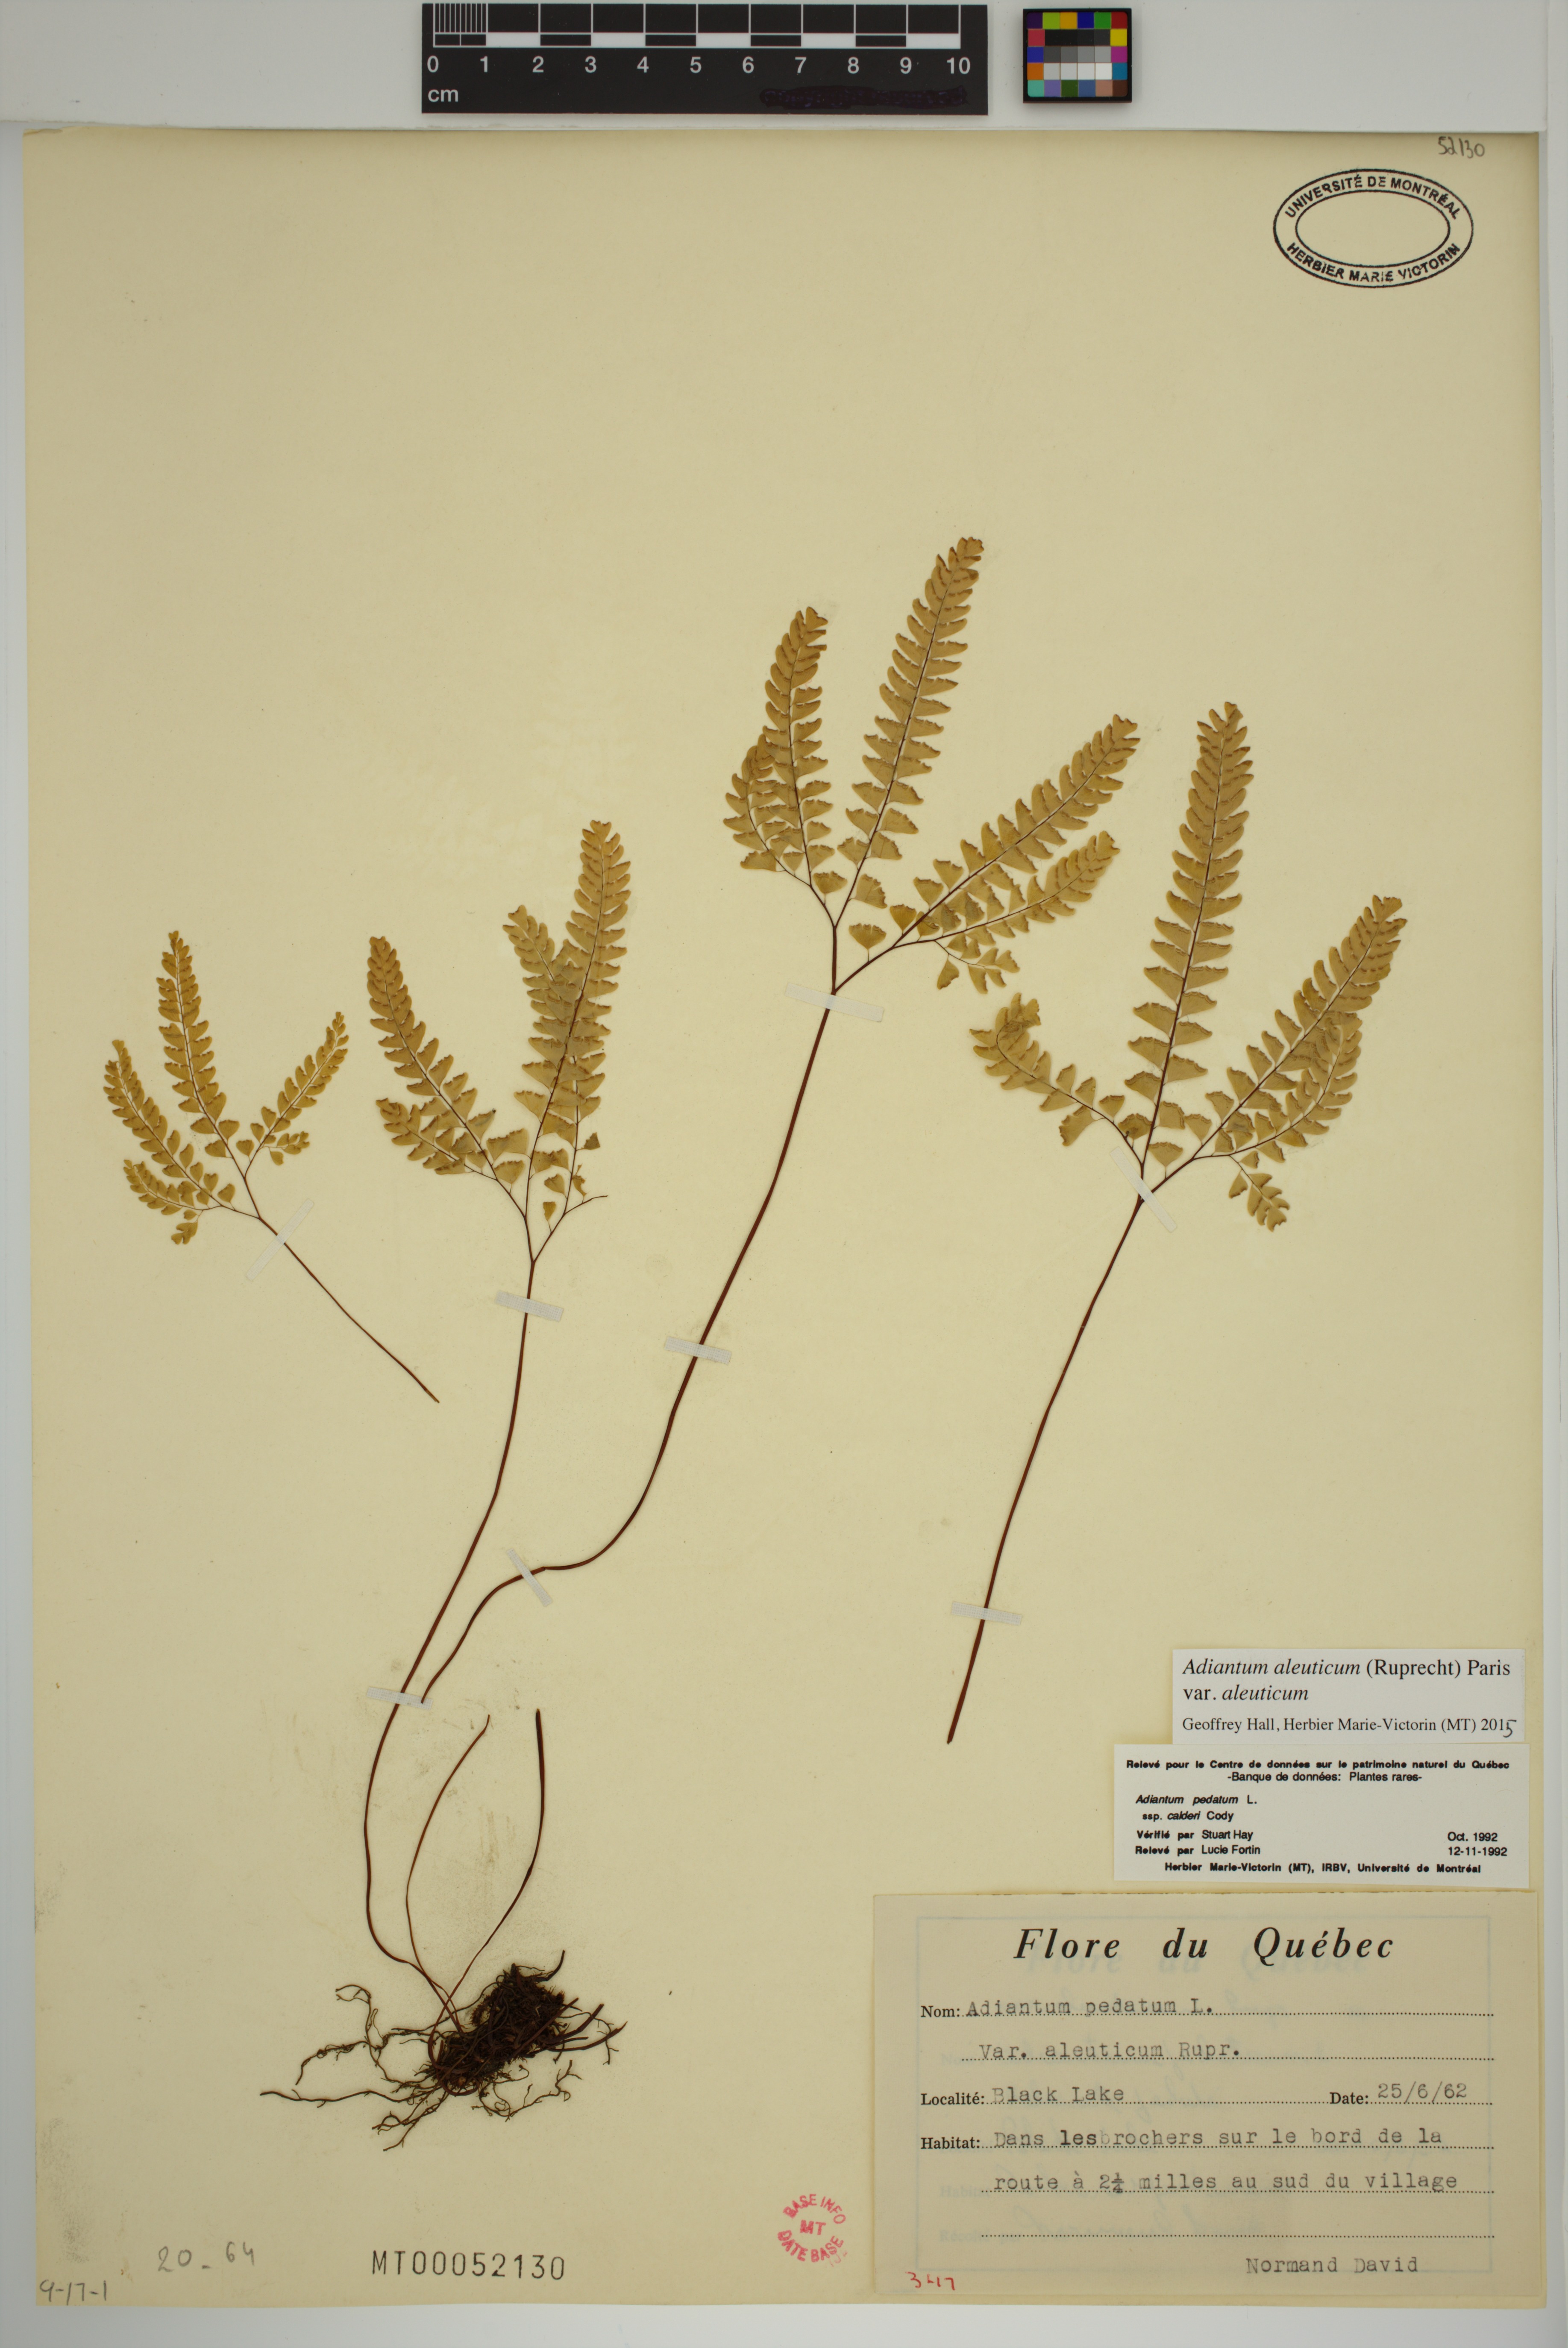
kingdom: Plantae
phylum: Tracheophyta
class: Polypodiopsida
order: Polypodiales
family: Pteridaceae
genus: Adiantum
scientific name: Adiantum aleuticum
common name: Aleutian maidenhair fern
